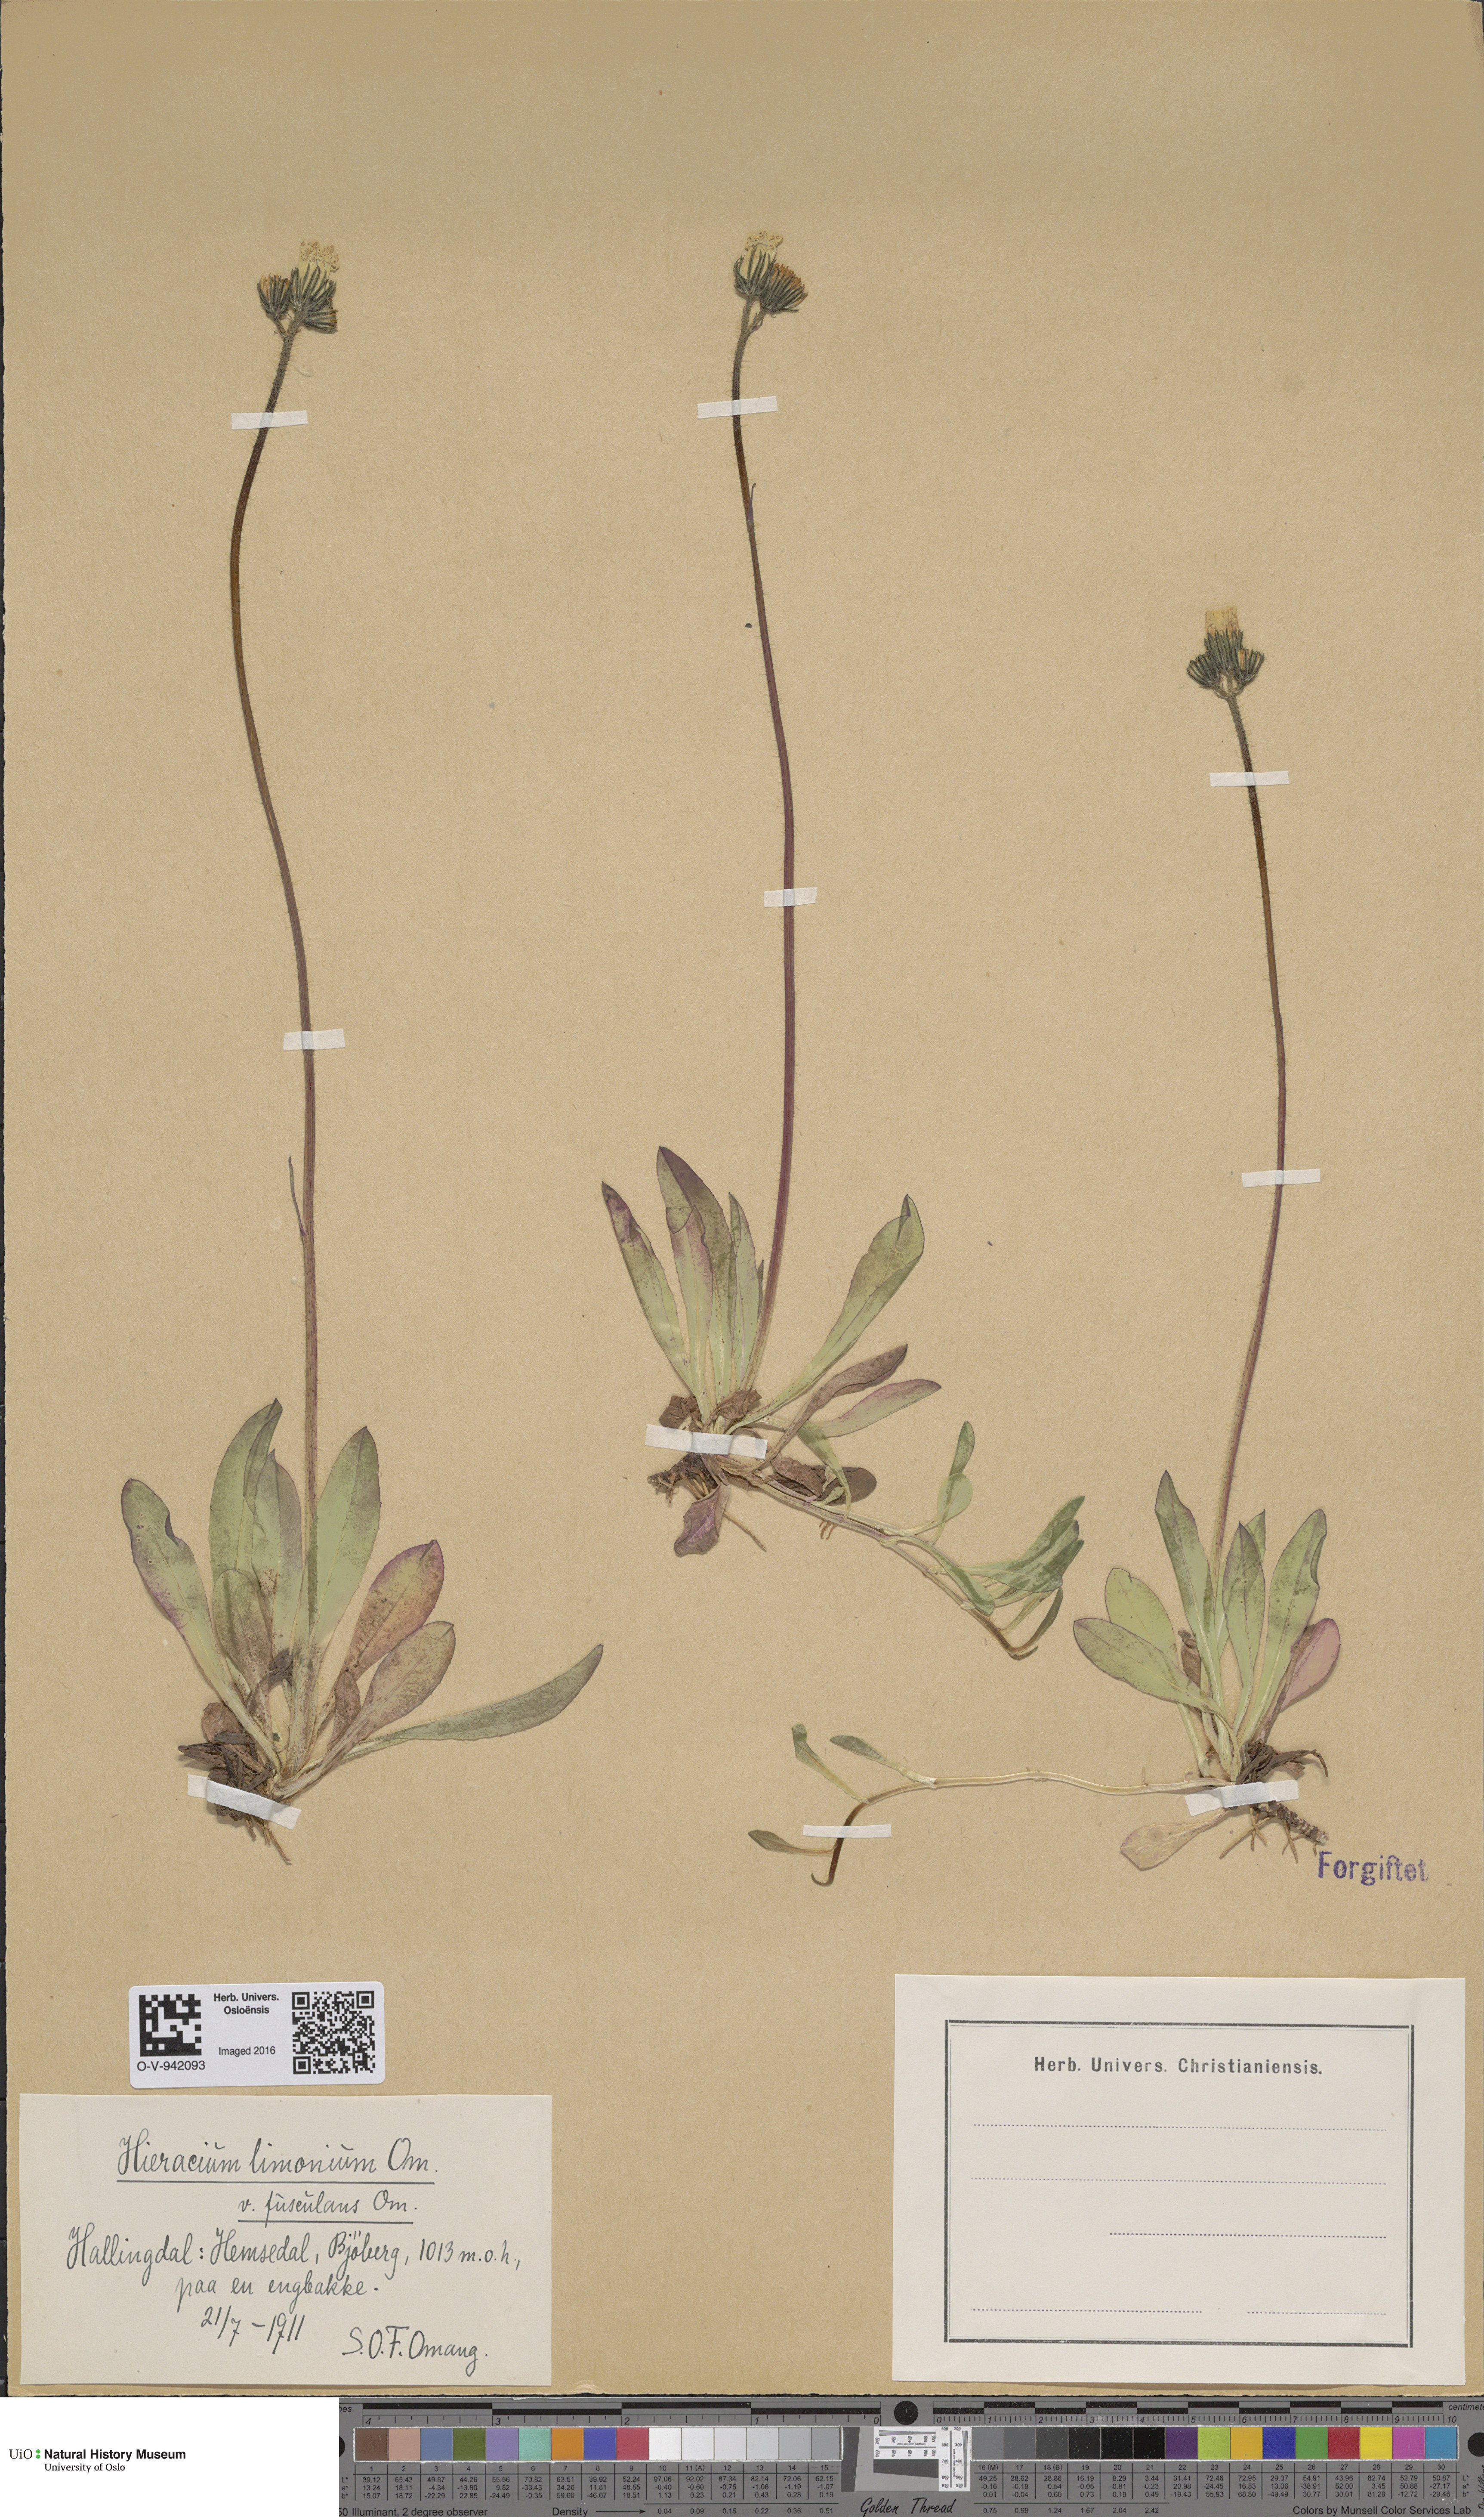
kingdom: Plantae
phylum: Tracheophyta
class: Magnoliopsida
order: Asterales
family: Asteraceae
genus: Pilosella
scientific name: Pilosella dubia
